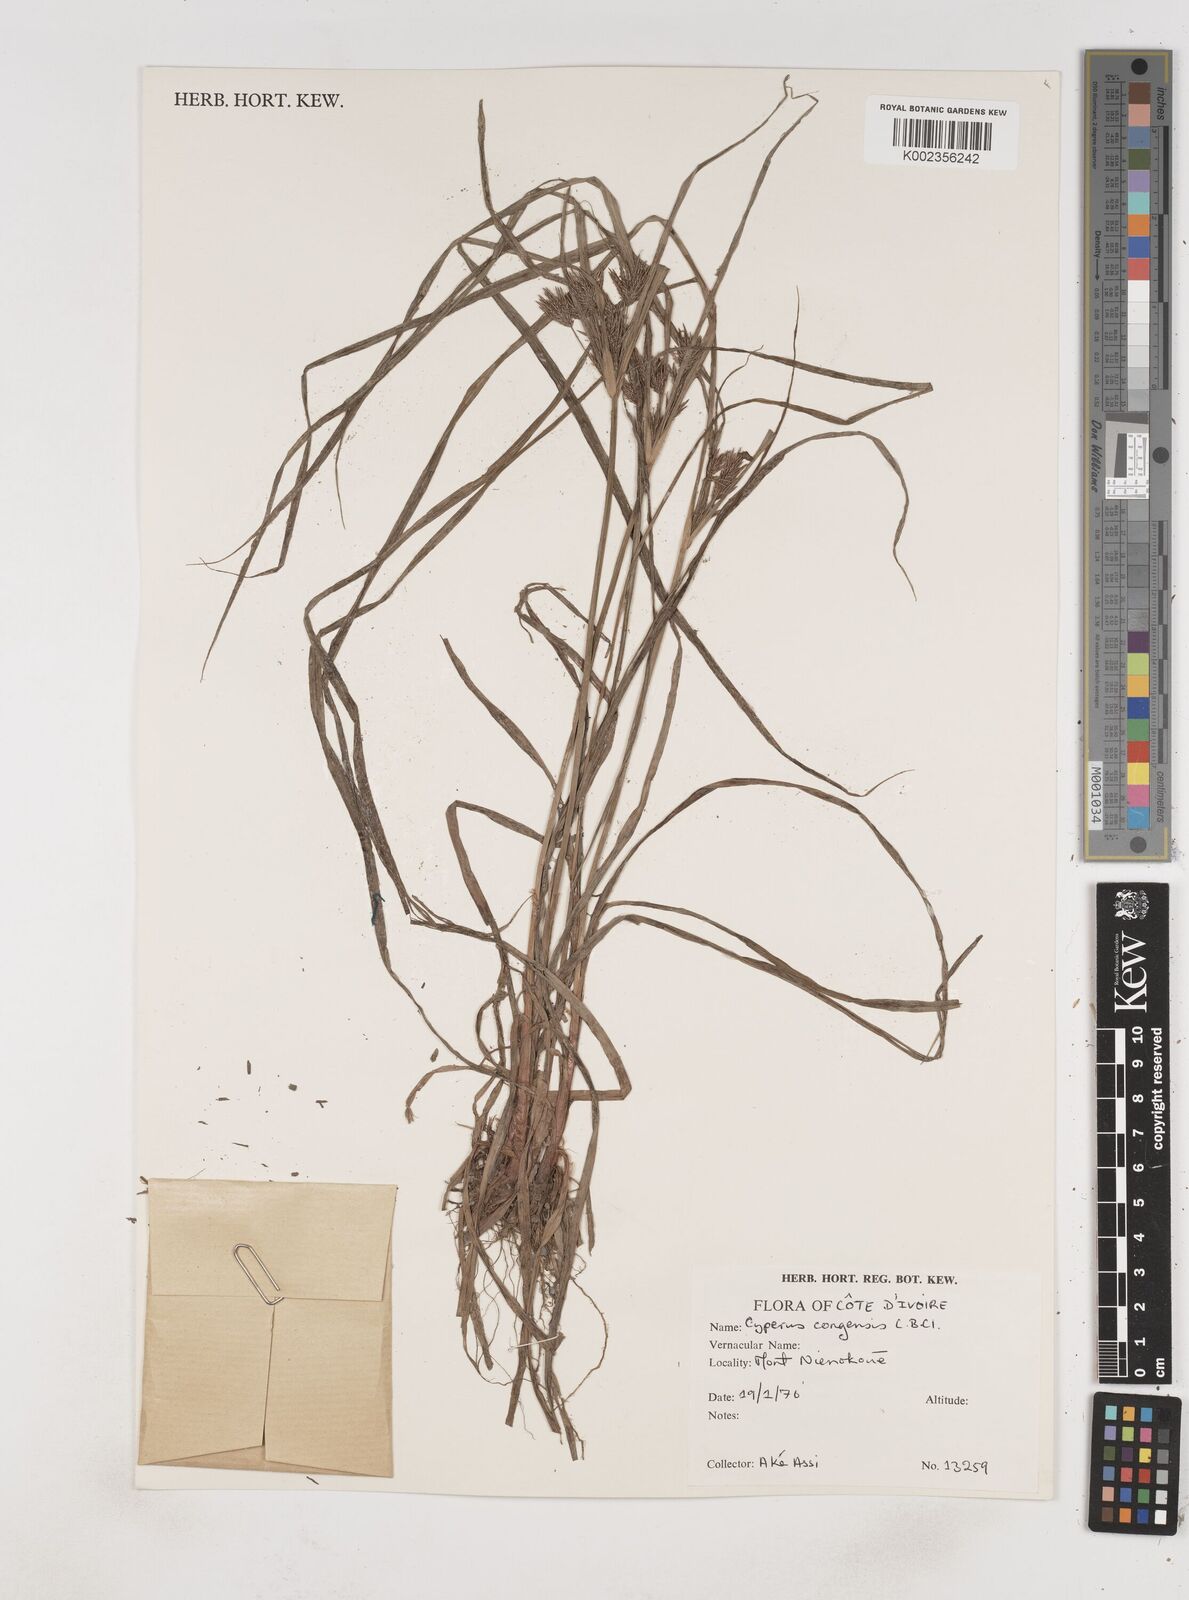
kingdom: Plantae
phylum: Tracheophyta
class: Liliopsida
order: Poales
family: Cyperaceae
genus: Cyperus
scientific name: Cyperus congensis
